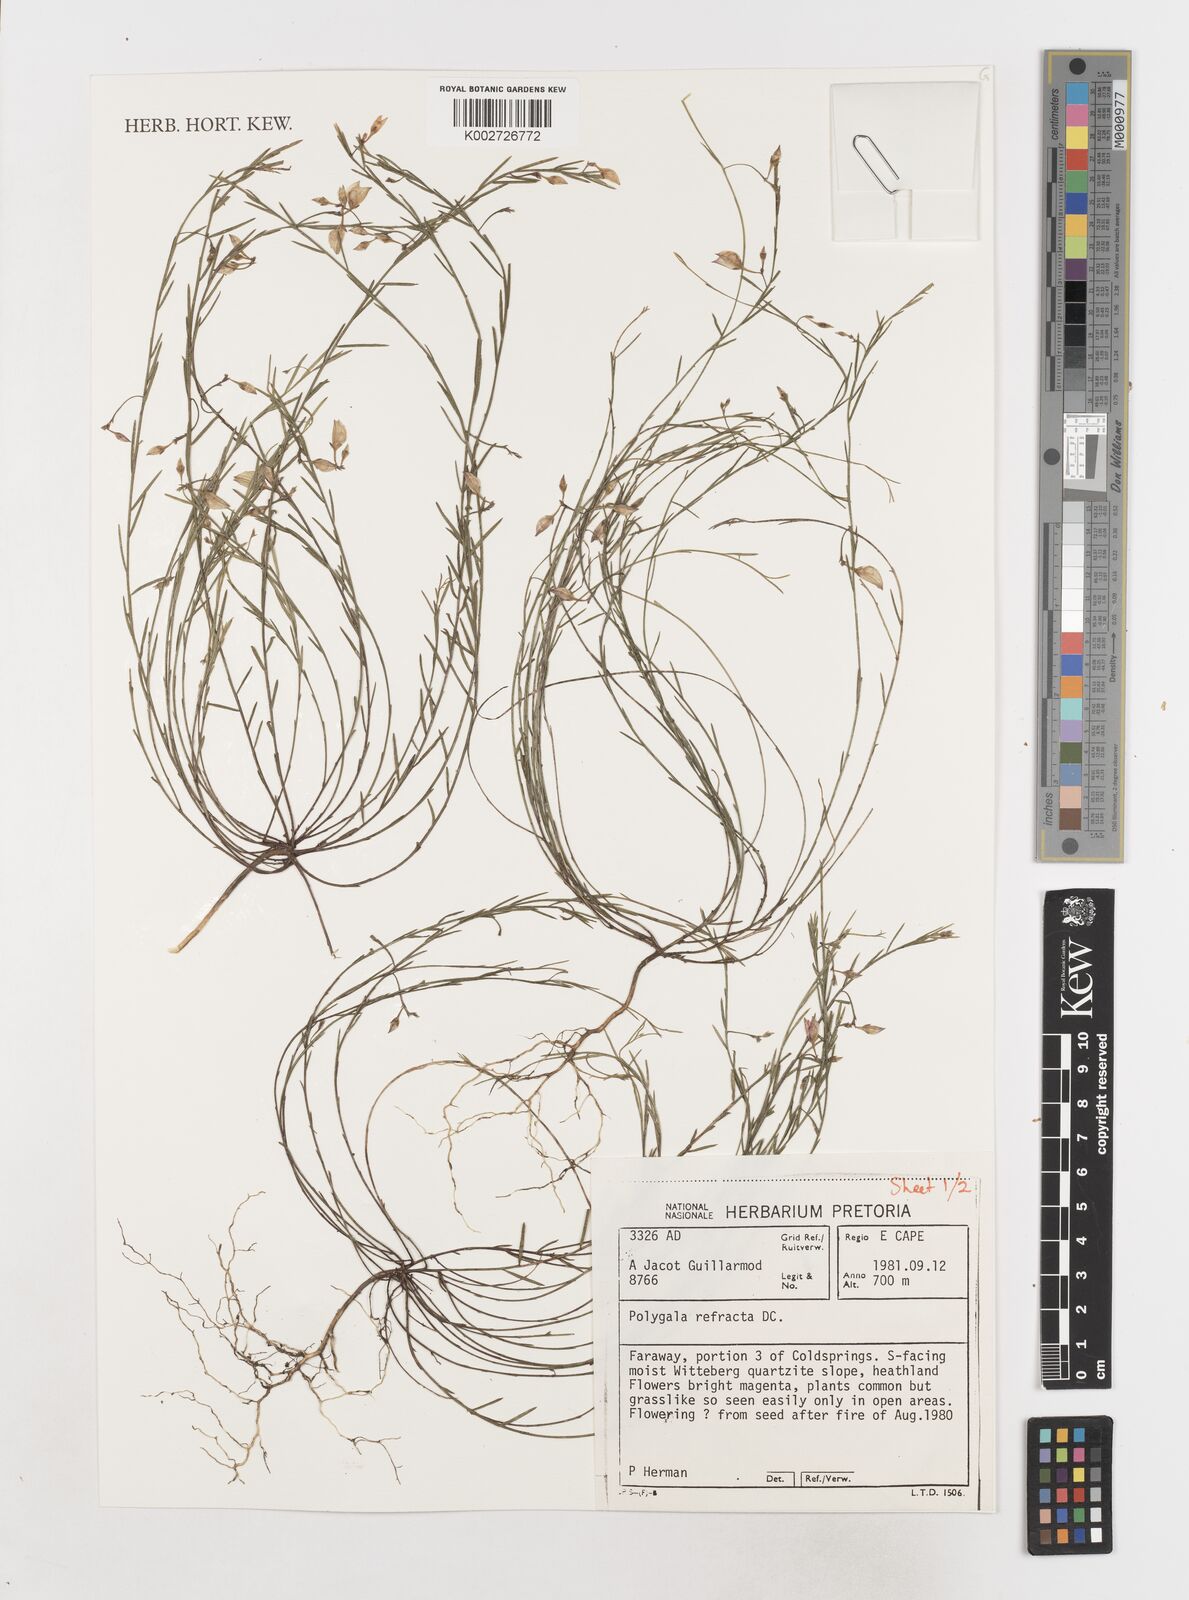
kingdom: Plantae
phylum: Tracheophyta
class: Magnoliopsida
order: Fabales
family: Polygalaceae
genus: Polygala
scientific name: Polygala refracta
